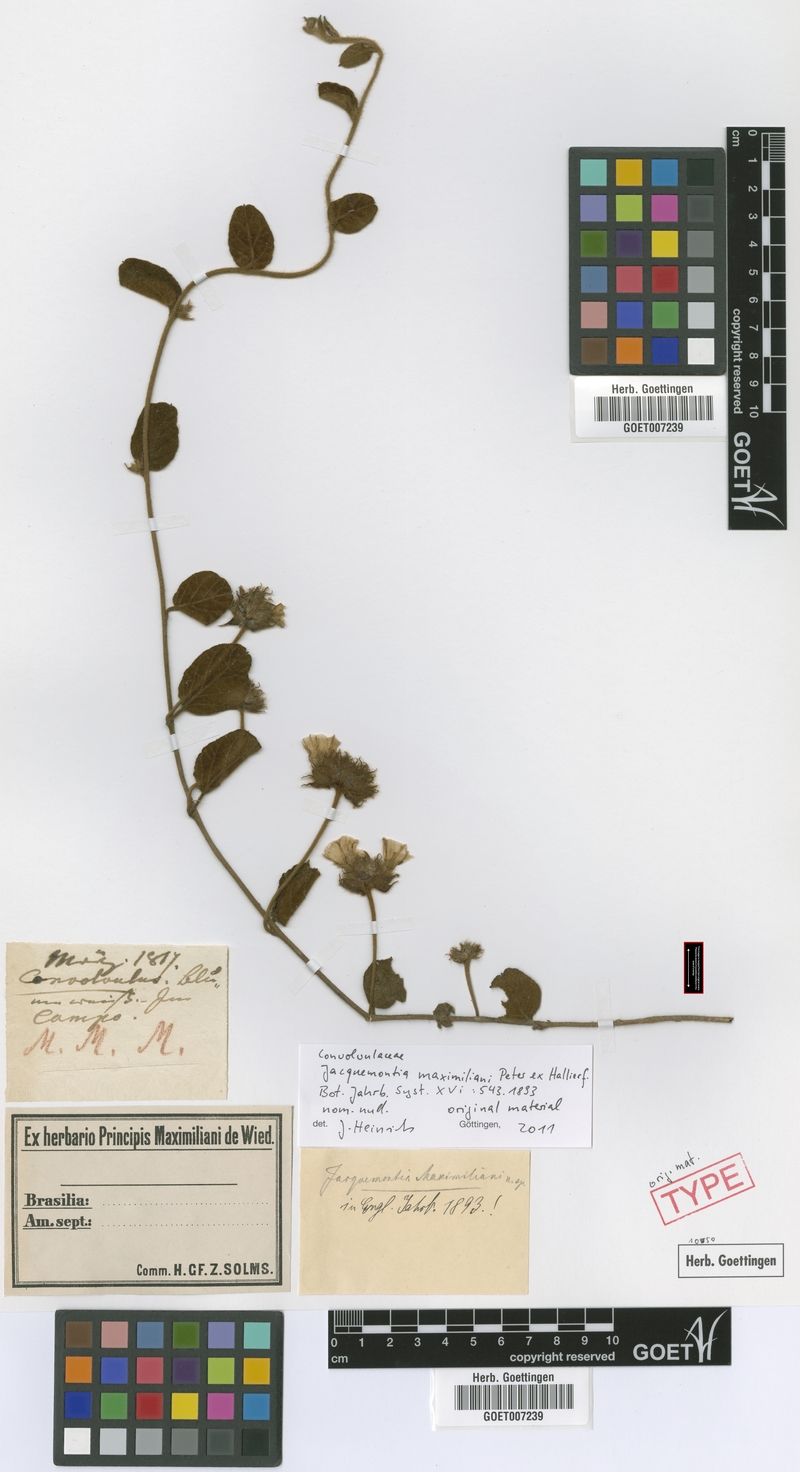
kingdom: Plantae
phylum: Tracheophyta
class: Magnoliopsida
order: Solanales
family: Convolvulaceae
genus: Jacquemontia
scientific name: Jacquemontia maximiliani
